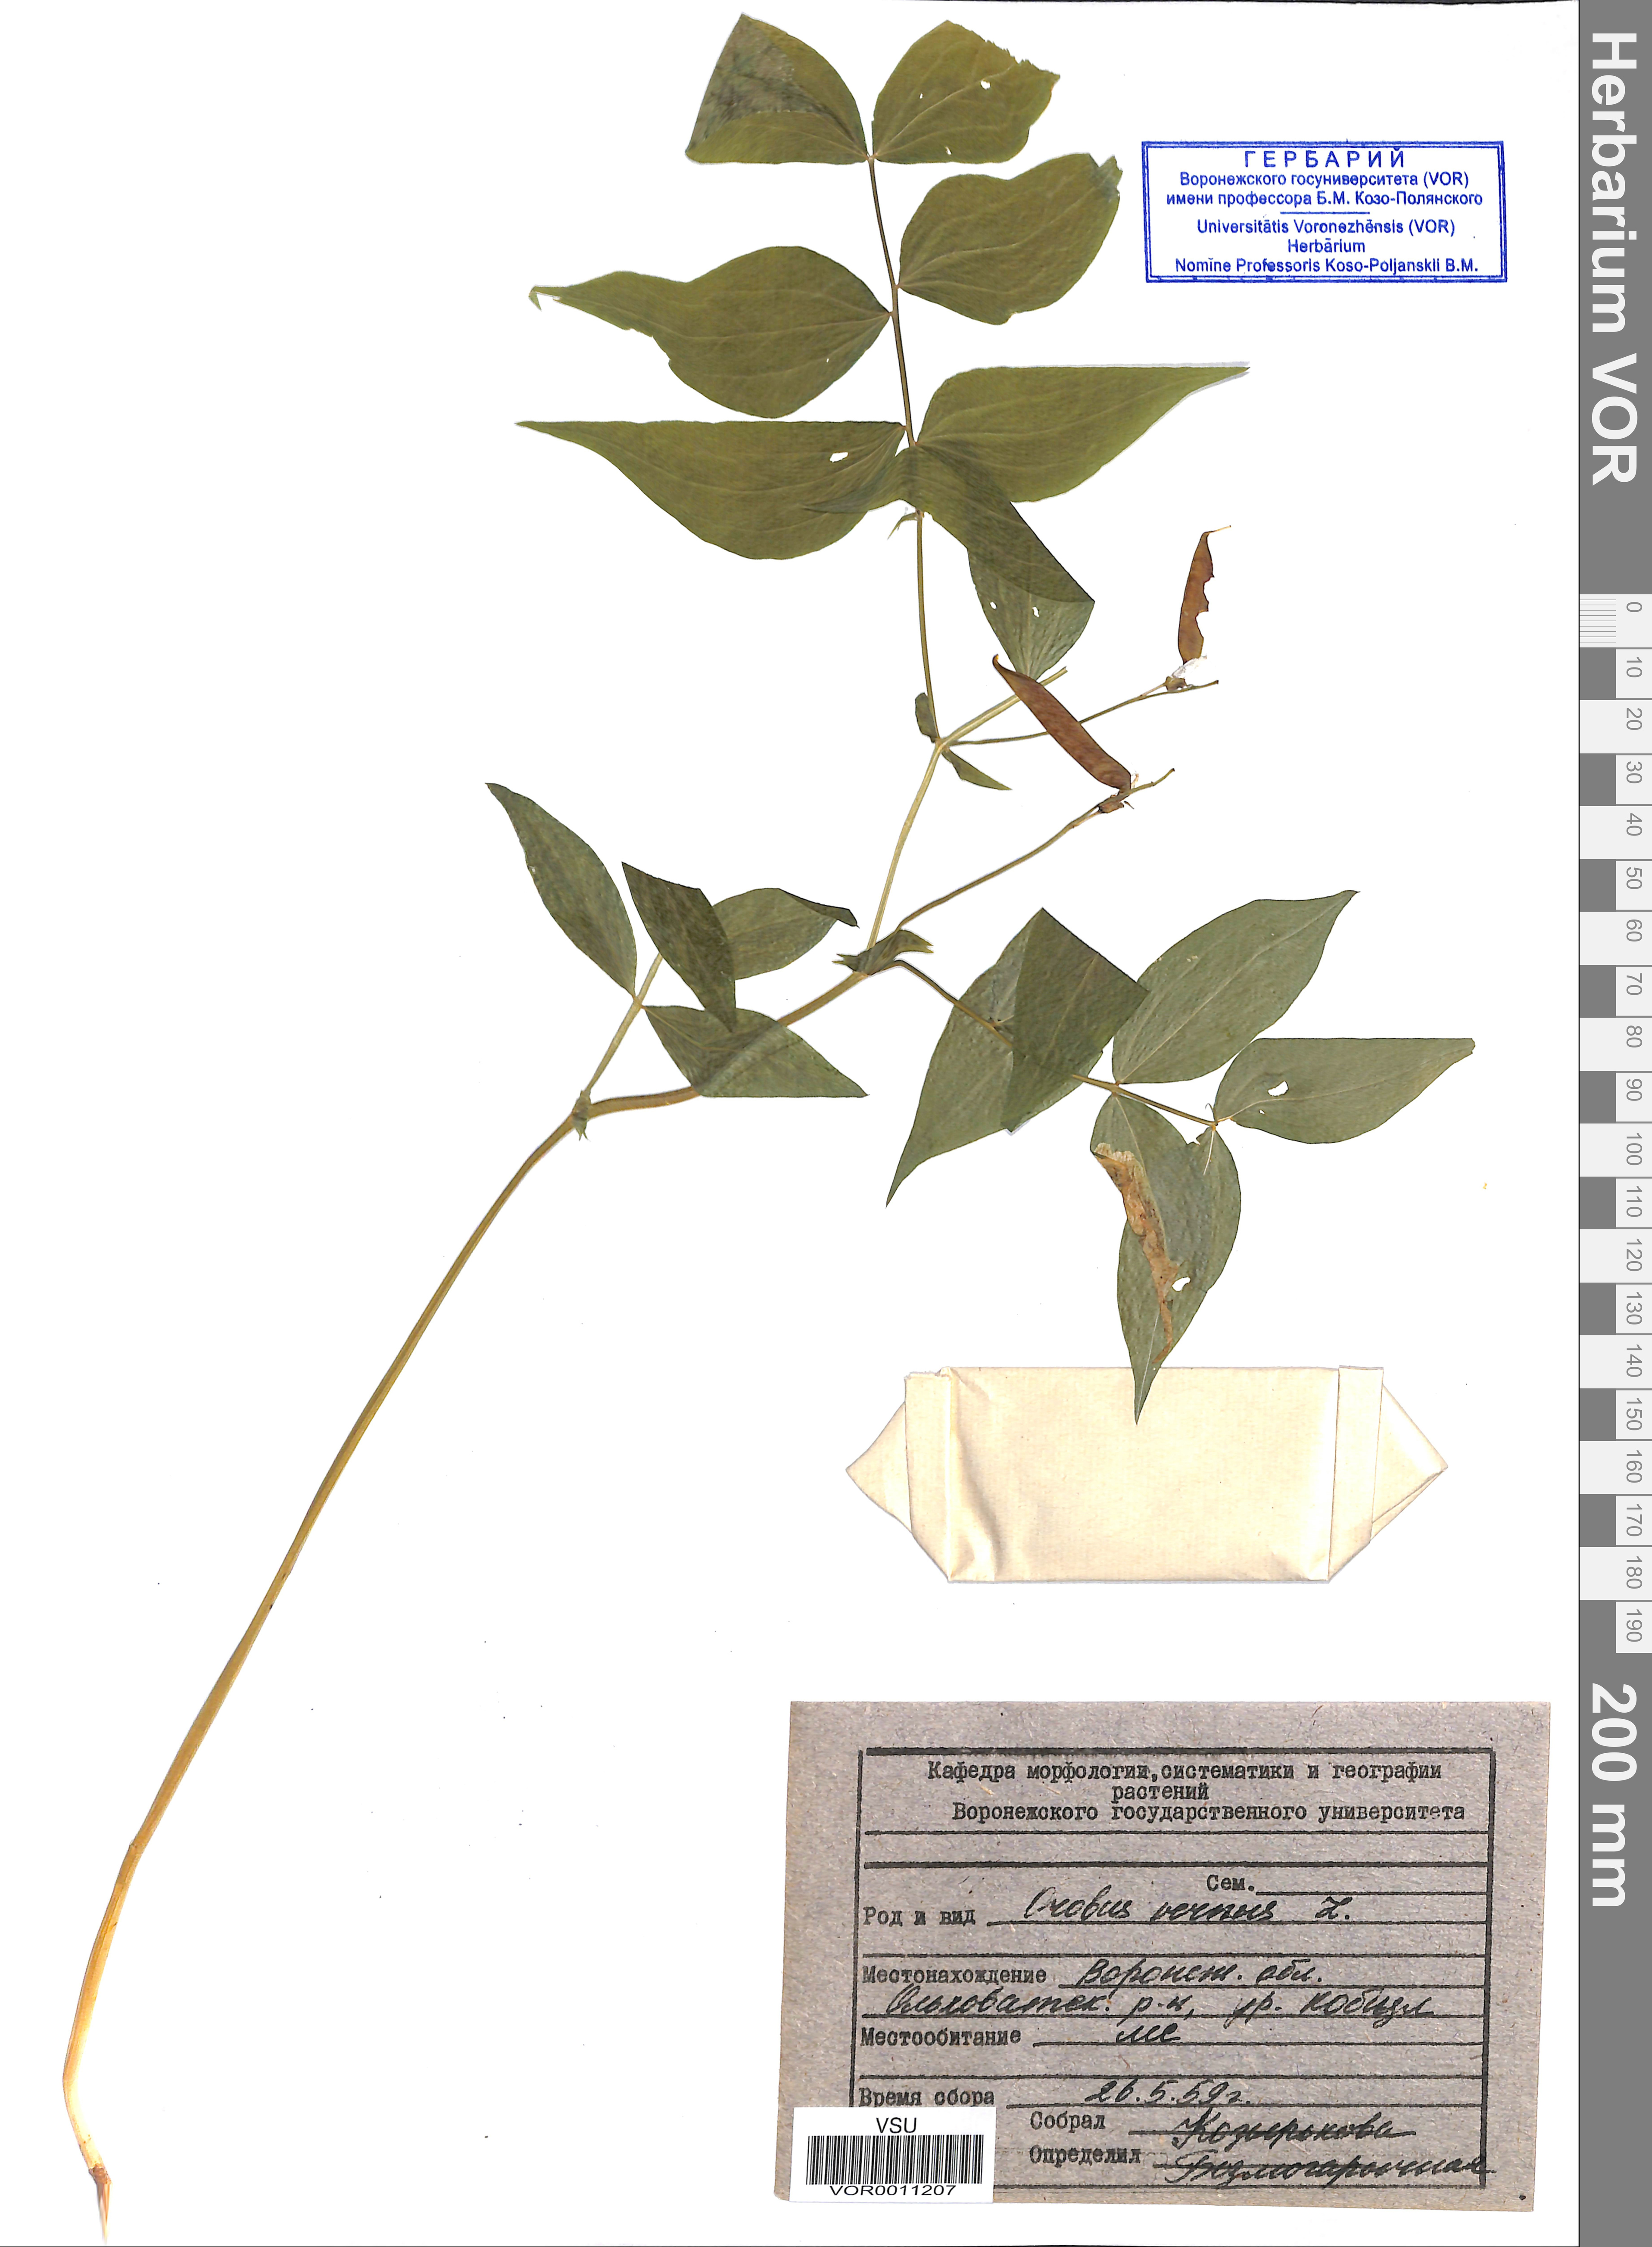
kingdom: Plantae
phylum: Tracheophyta
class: Magnoliopsida
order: Fabales
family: Fabaceae
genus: Lathyrus
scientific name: Lathyrus vernus
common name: Spring pea
